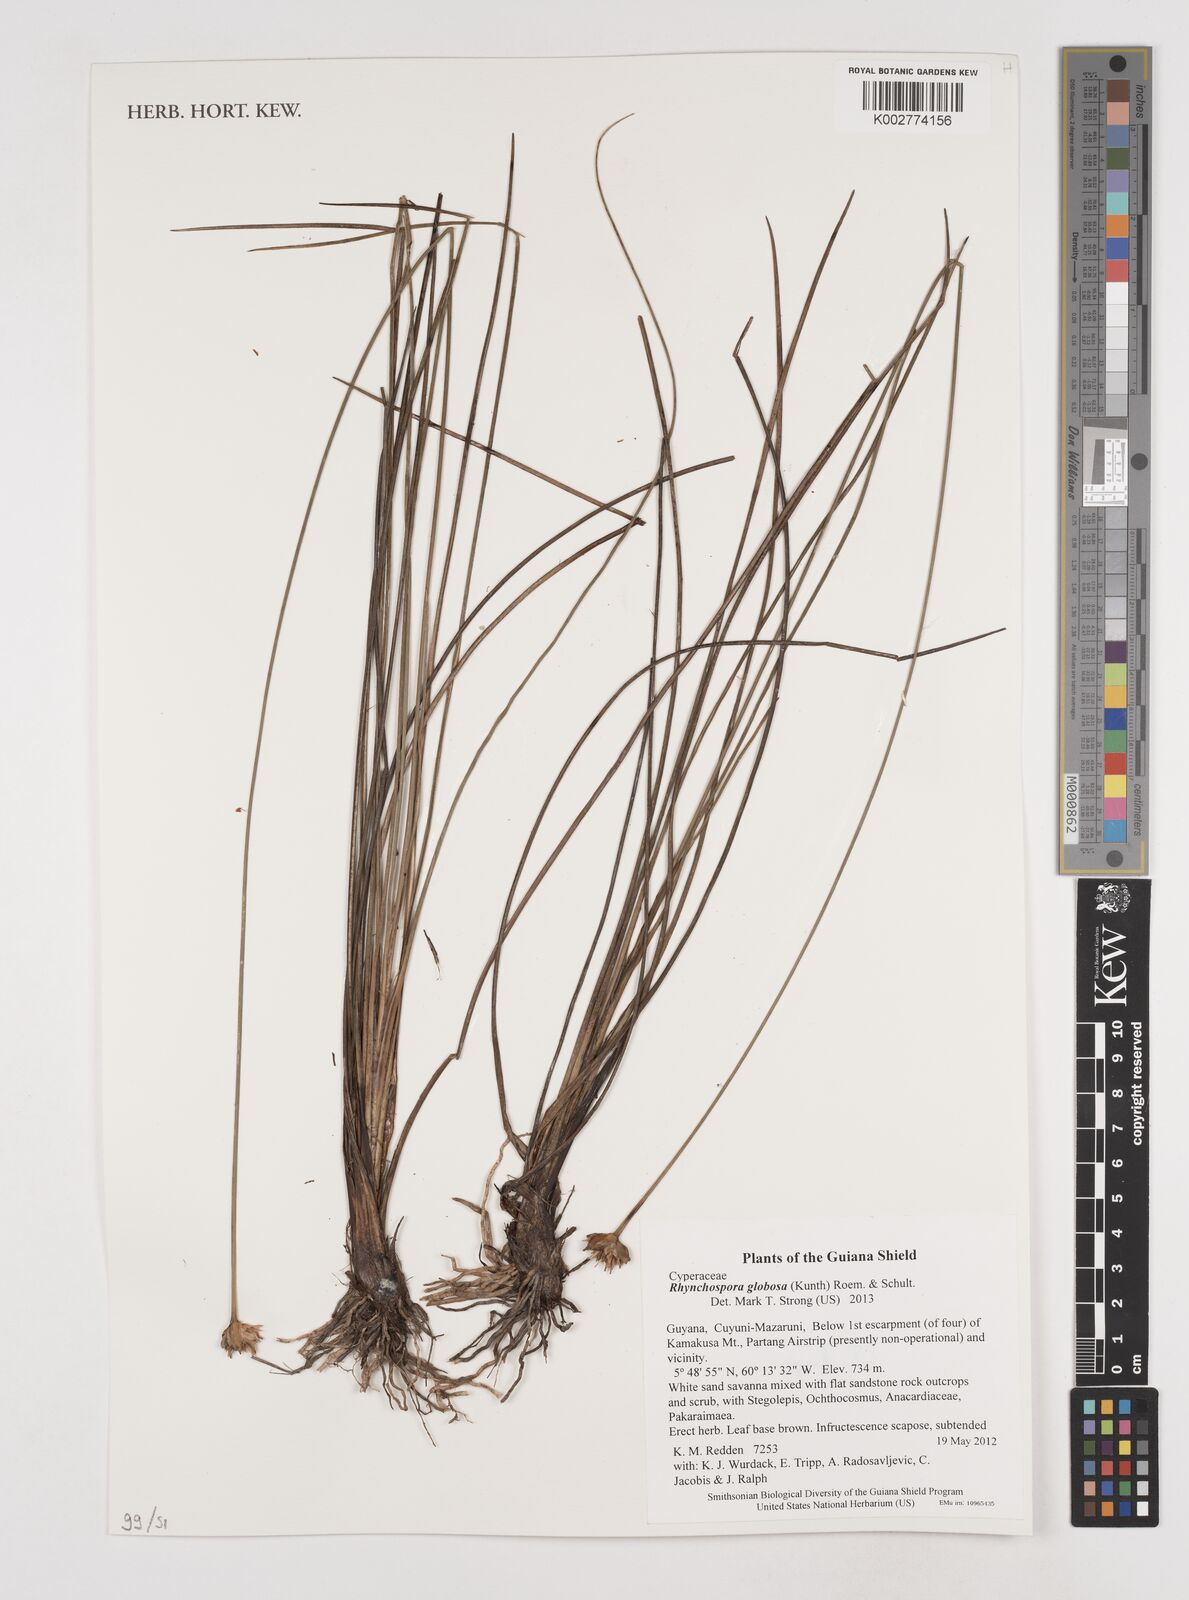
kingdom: Plantae
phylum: Tracheophyta
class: Liliopsida
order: Poales
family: Cyperaceae
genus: Rhynchospora
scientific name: Rhynchospora globosa
